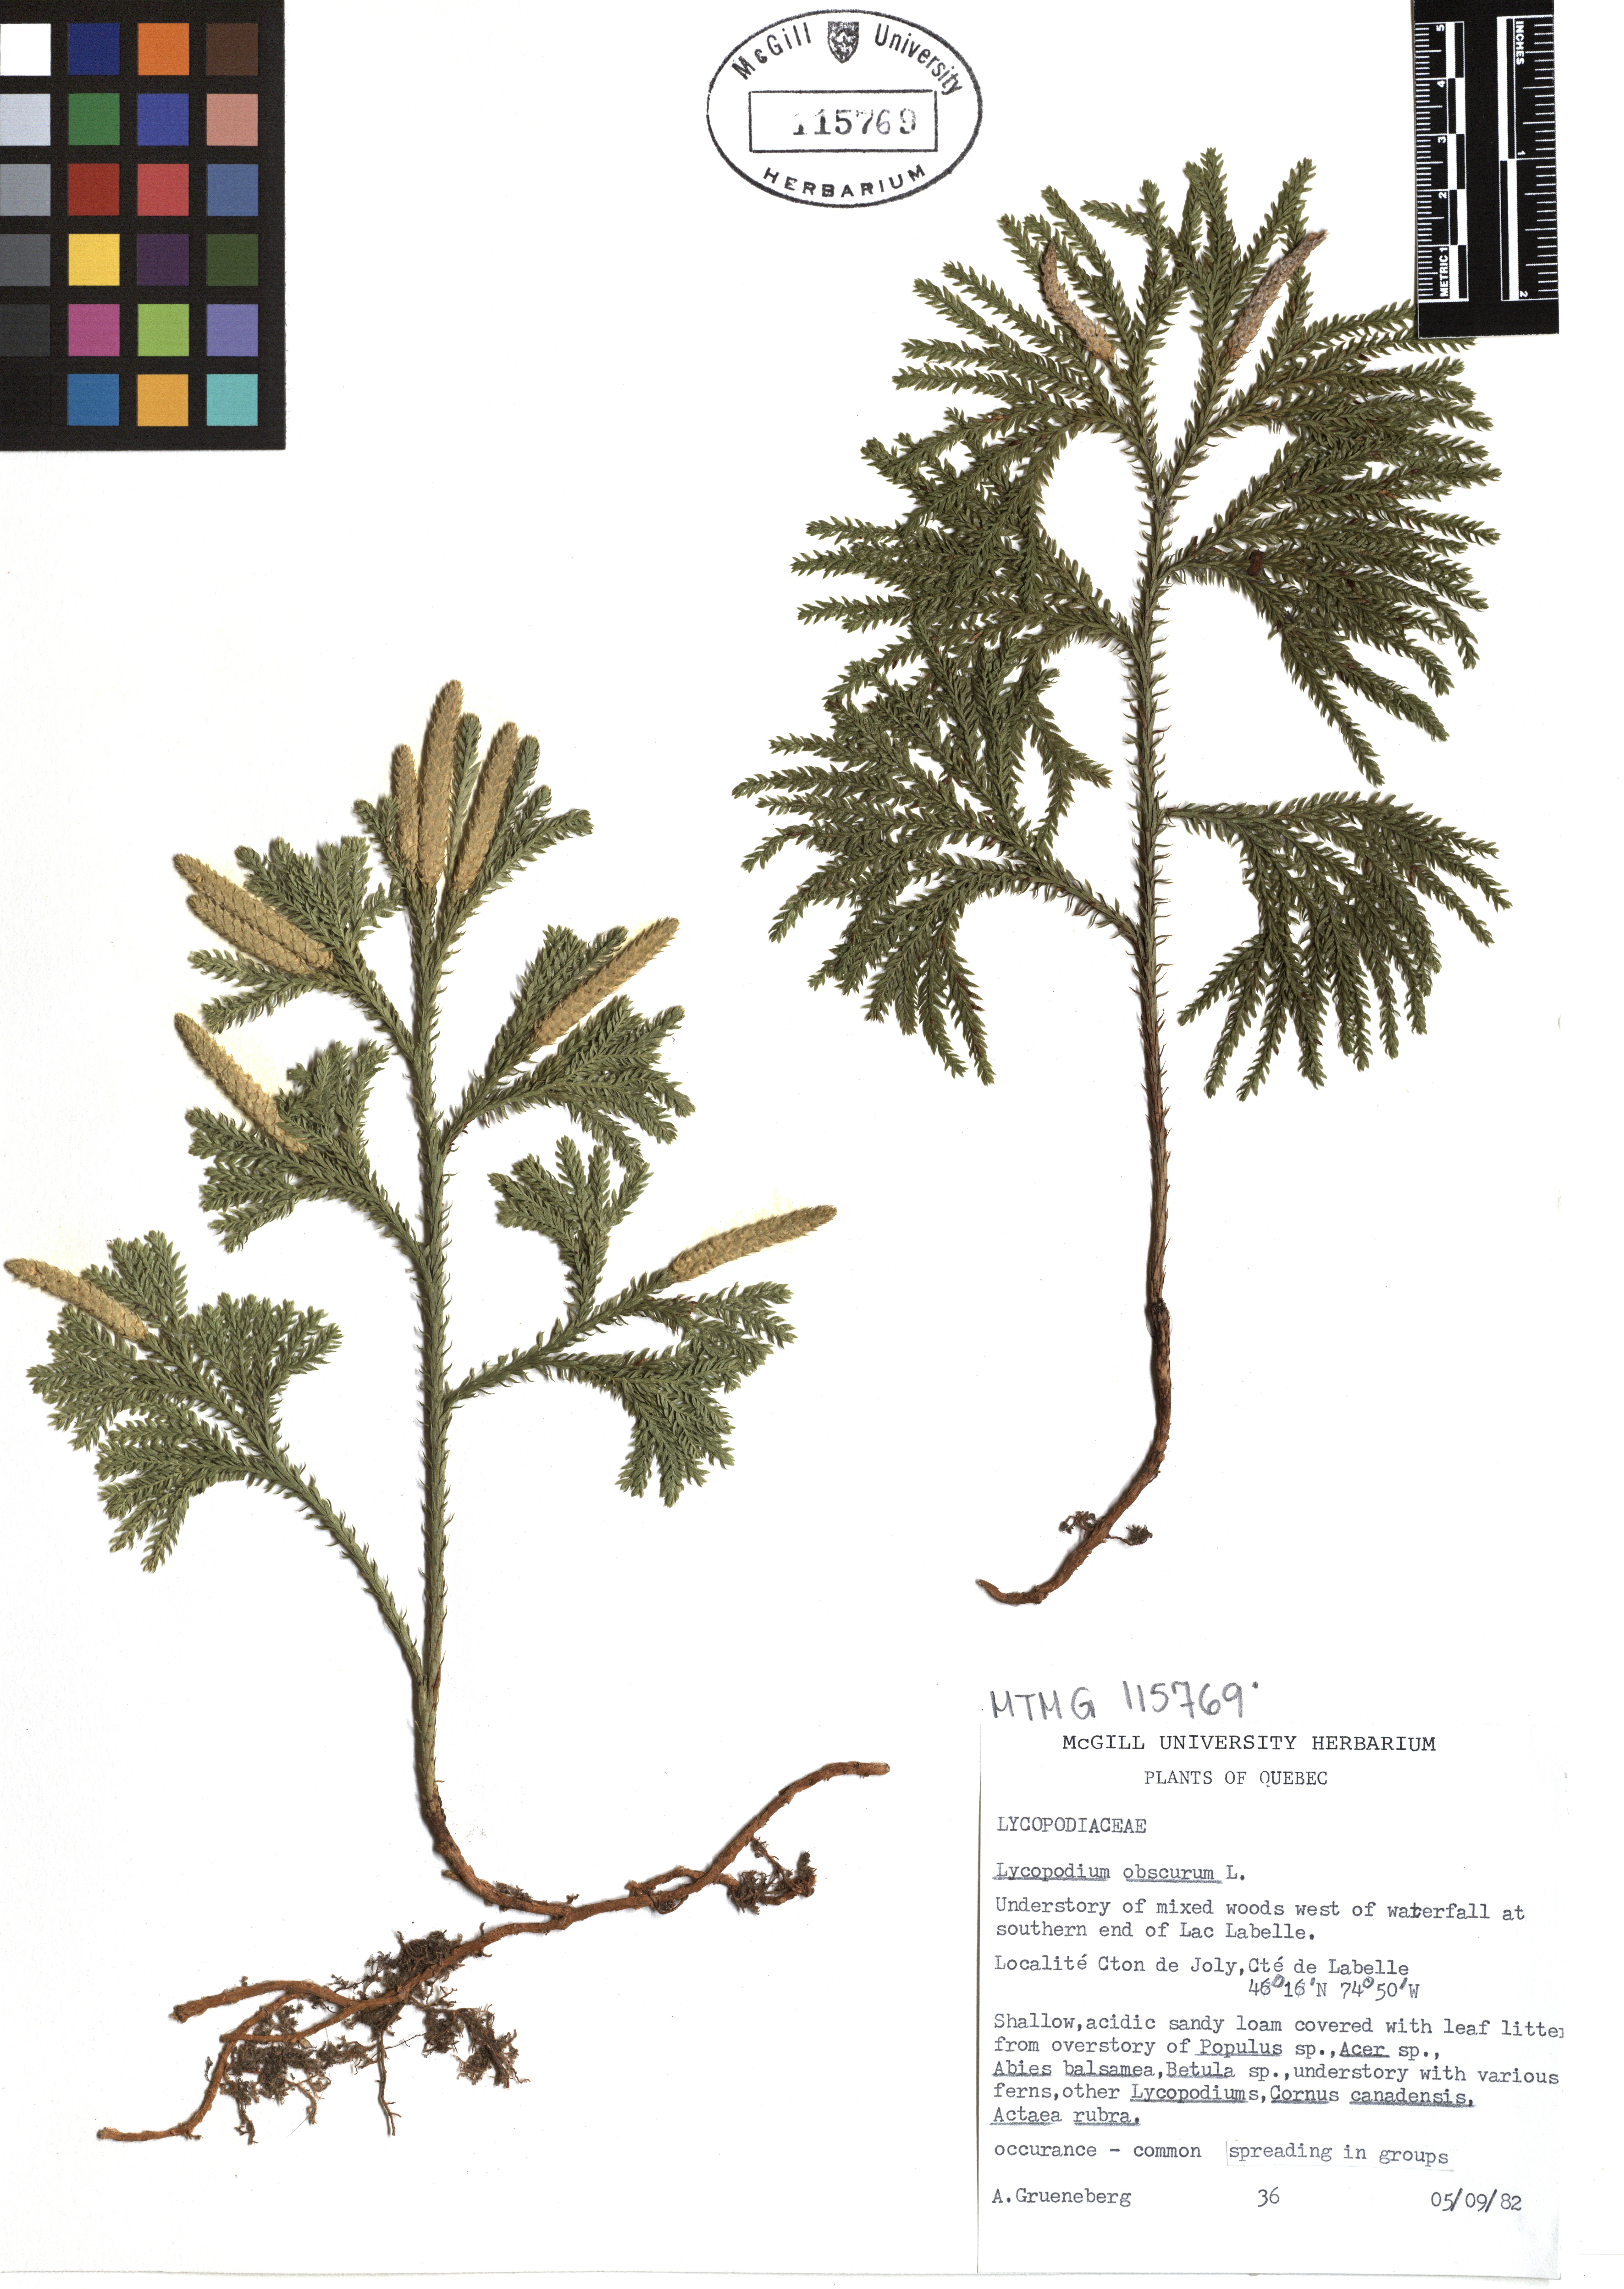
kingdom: Plantae
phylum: Tracheophyta
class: Lycopodiopsida
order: Lycopodiales
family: Lycopodiaceae
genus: Dendrolycopodium
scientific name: Dendrolycopodium obscurum
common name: Common ground-pine
